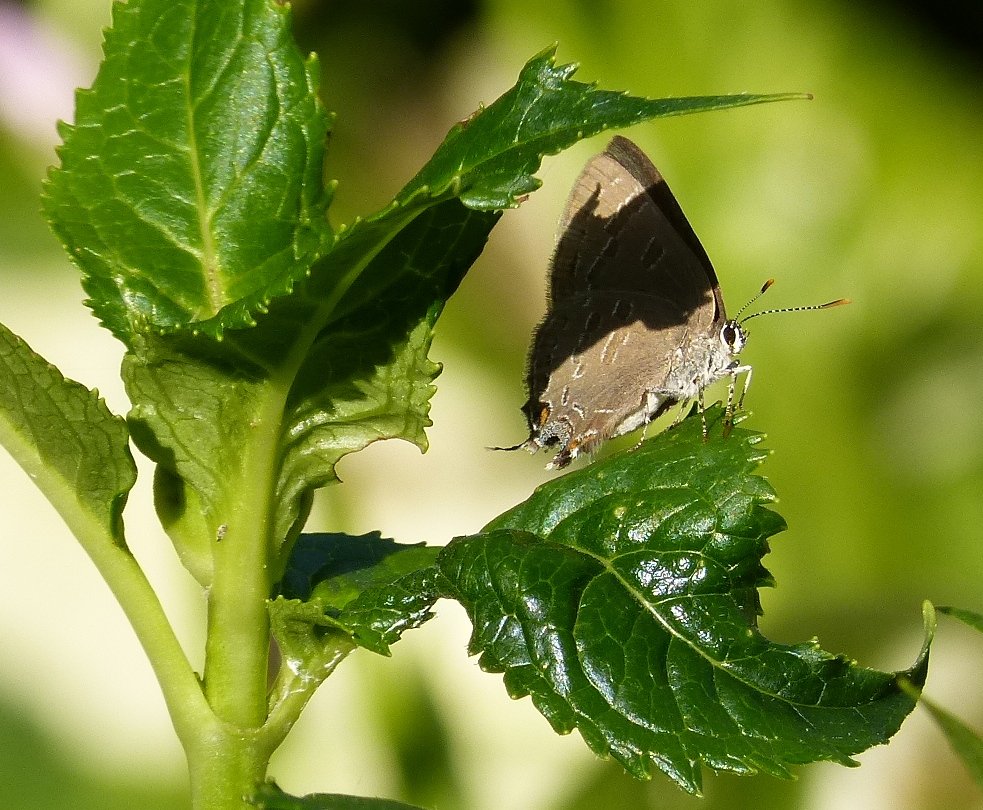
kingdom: Animalia
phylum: Arthropoda
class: Insecta
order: Lepidoptera
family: Lycaenidae
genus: Satyrium
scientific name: Satyrium liparops
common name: Striped Hairstreak
